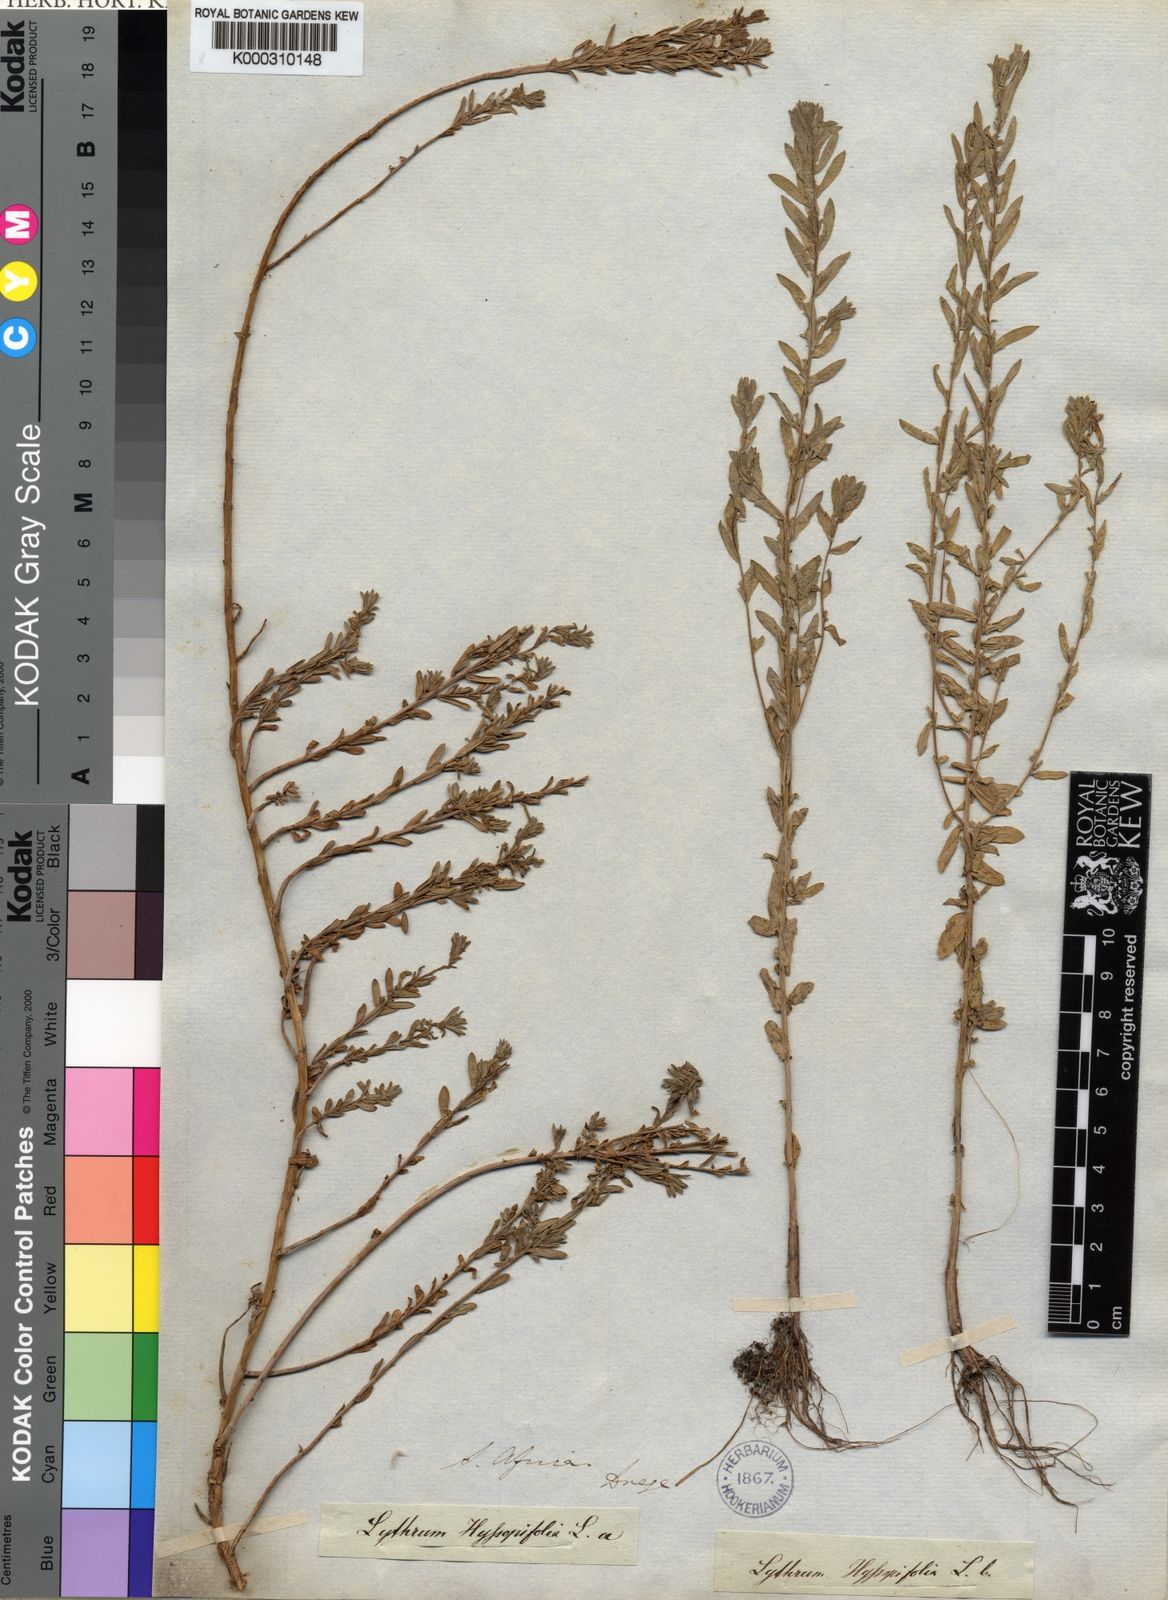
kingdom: Plantae
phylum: Tracheophyta
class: Magnoliopsida
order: Myrtales
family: Lythraceae
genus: Lythrum
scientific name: Lythrum hyssopifolia
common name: Grass-poly
